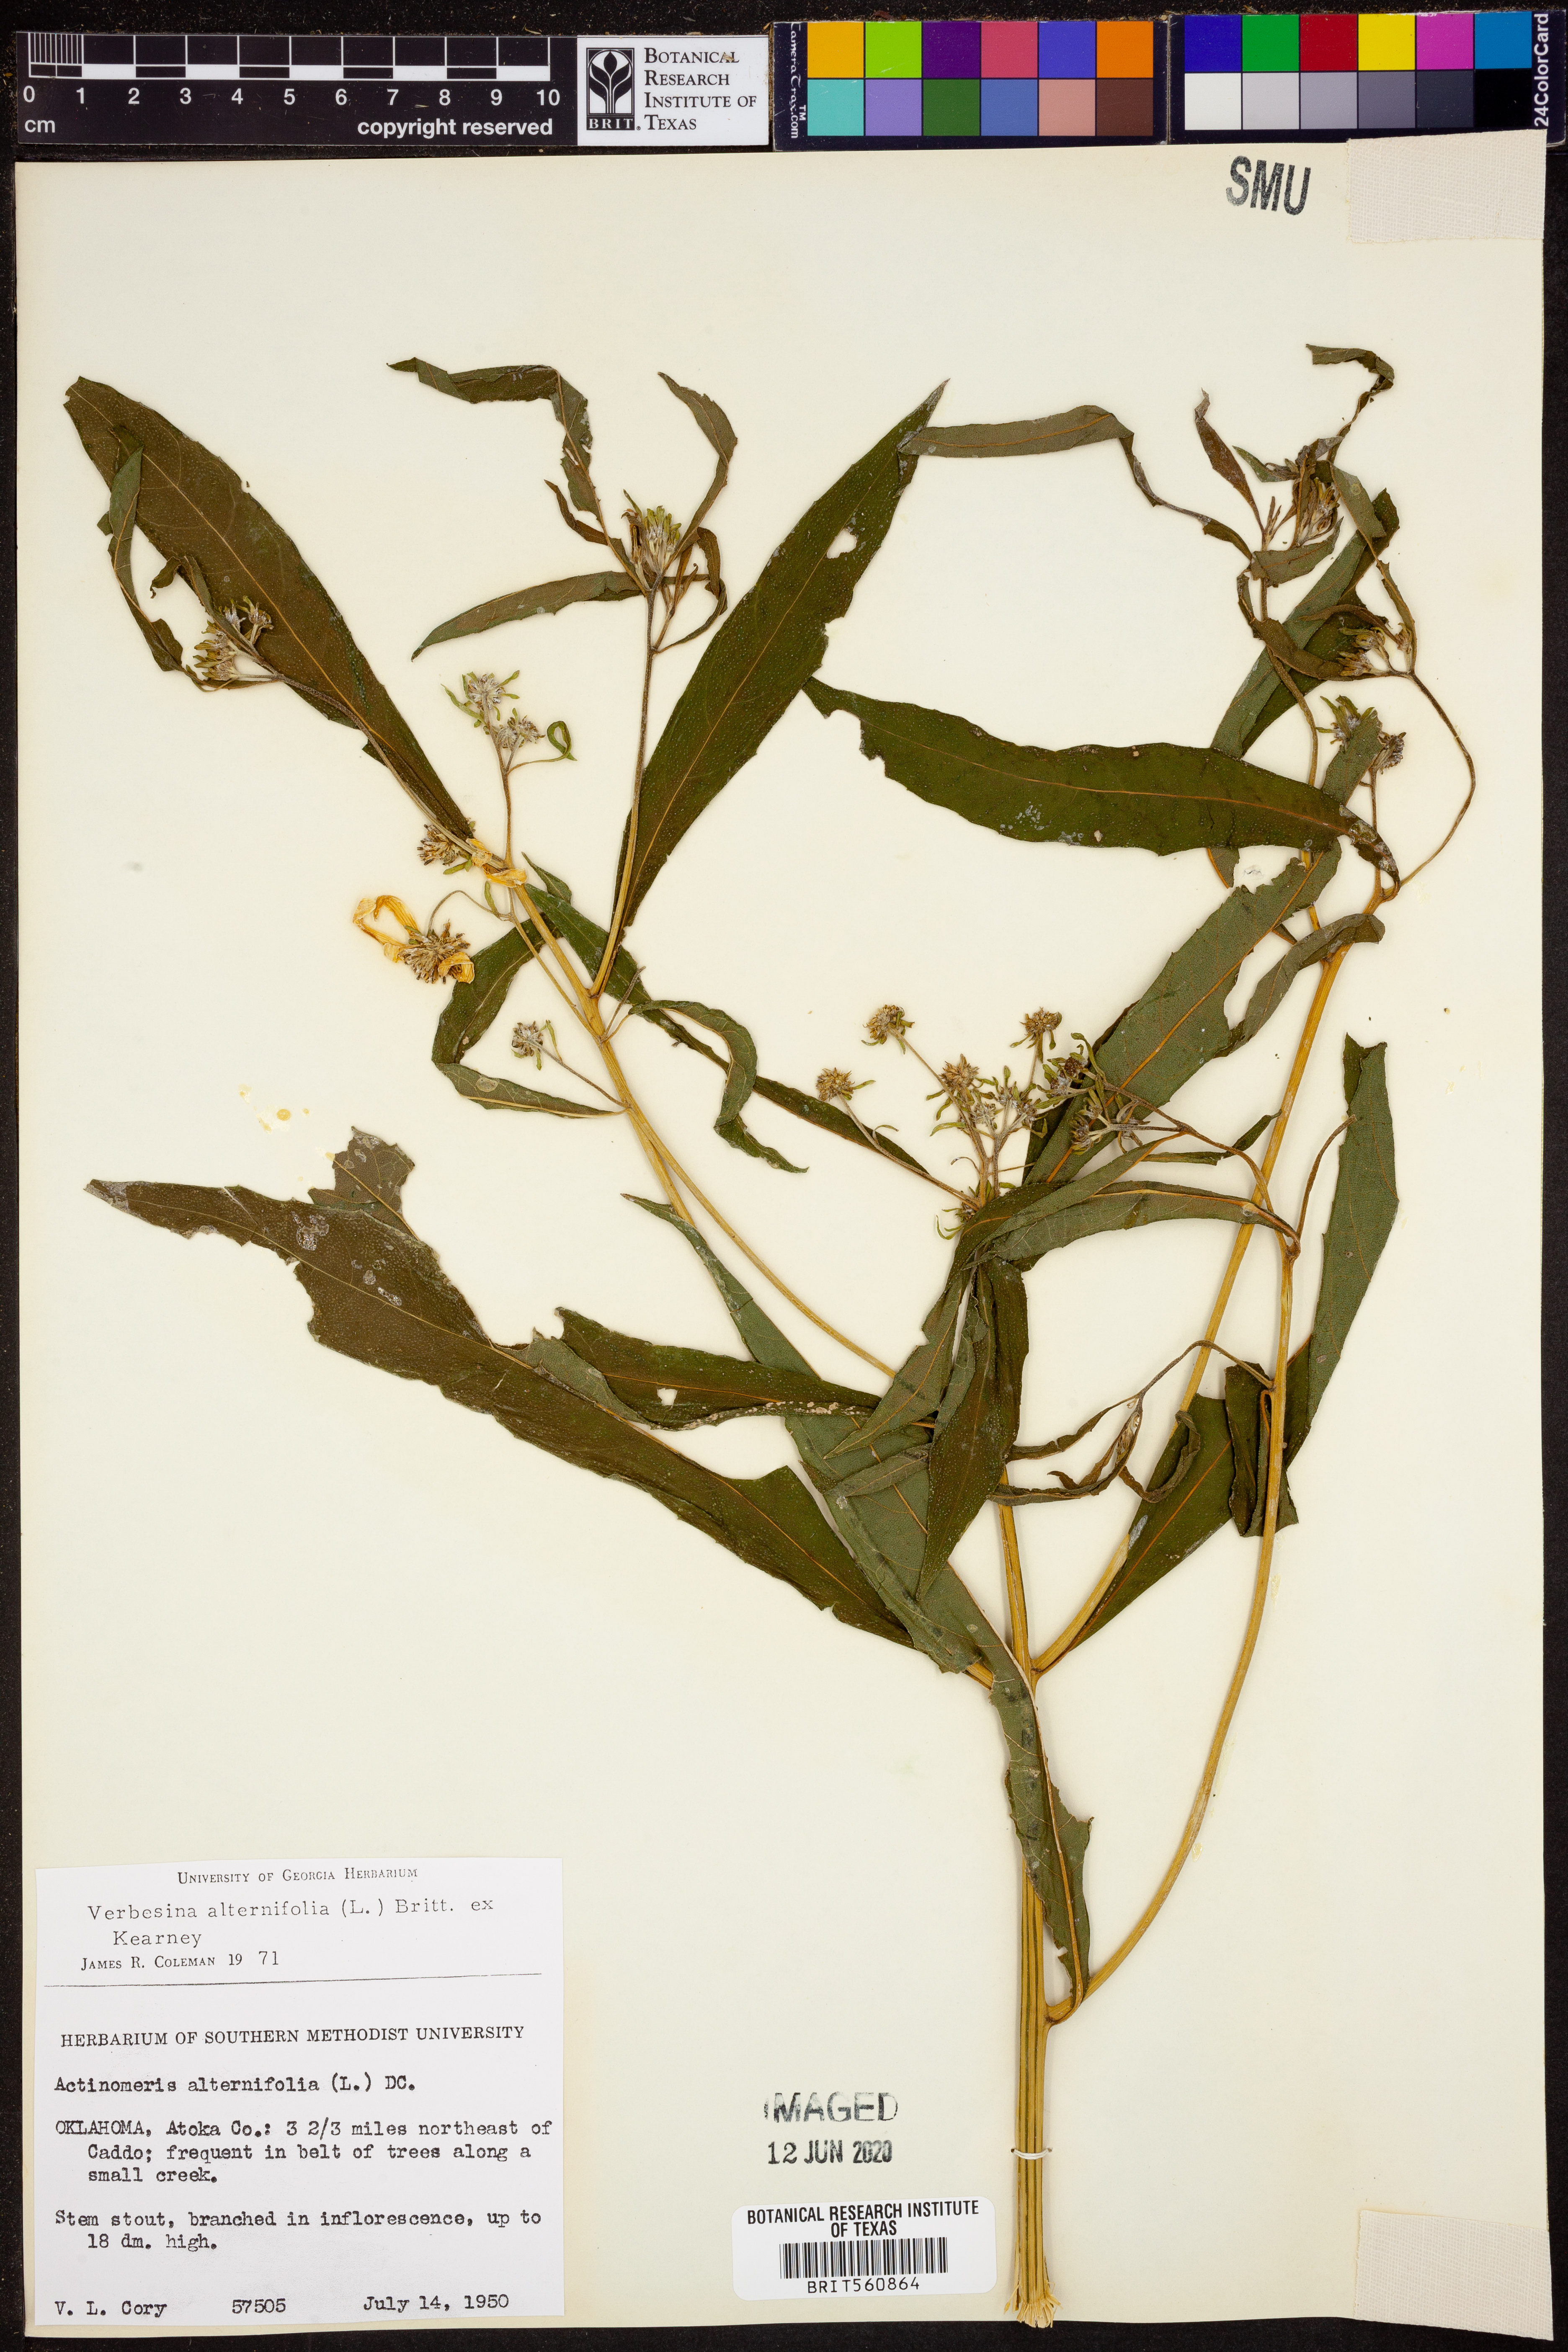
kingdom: Plantae
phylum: Tracheophyta
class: Magnoliopsida
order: Asterales
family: Asteraceae
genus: Verbesina
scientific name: Verbesina alternifolia
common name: Wingstem
